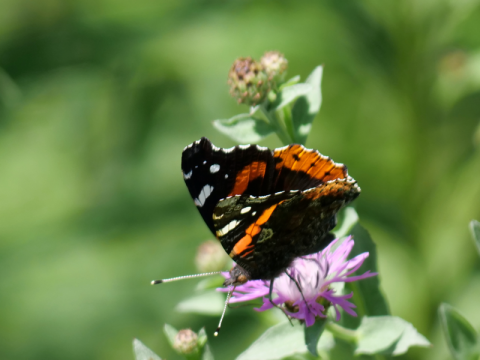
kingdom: Animalia
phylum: Arthropoda
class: Insecta
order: Lepidoptera
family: Nymphalidae
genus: Vanessa
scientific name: Vanessa atalanta
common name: Red Admiral
